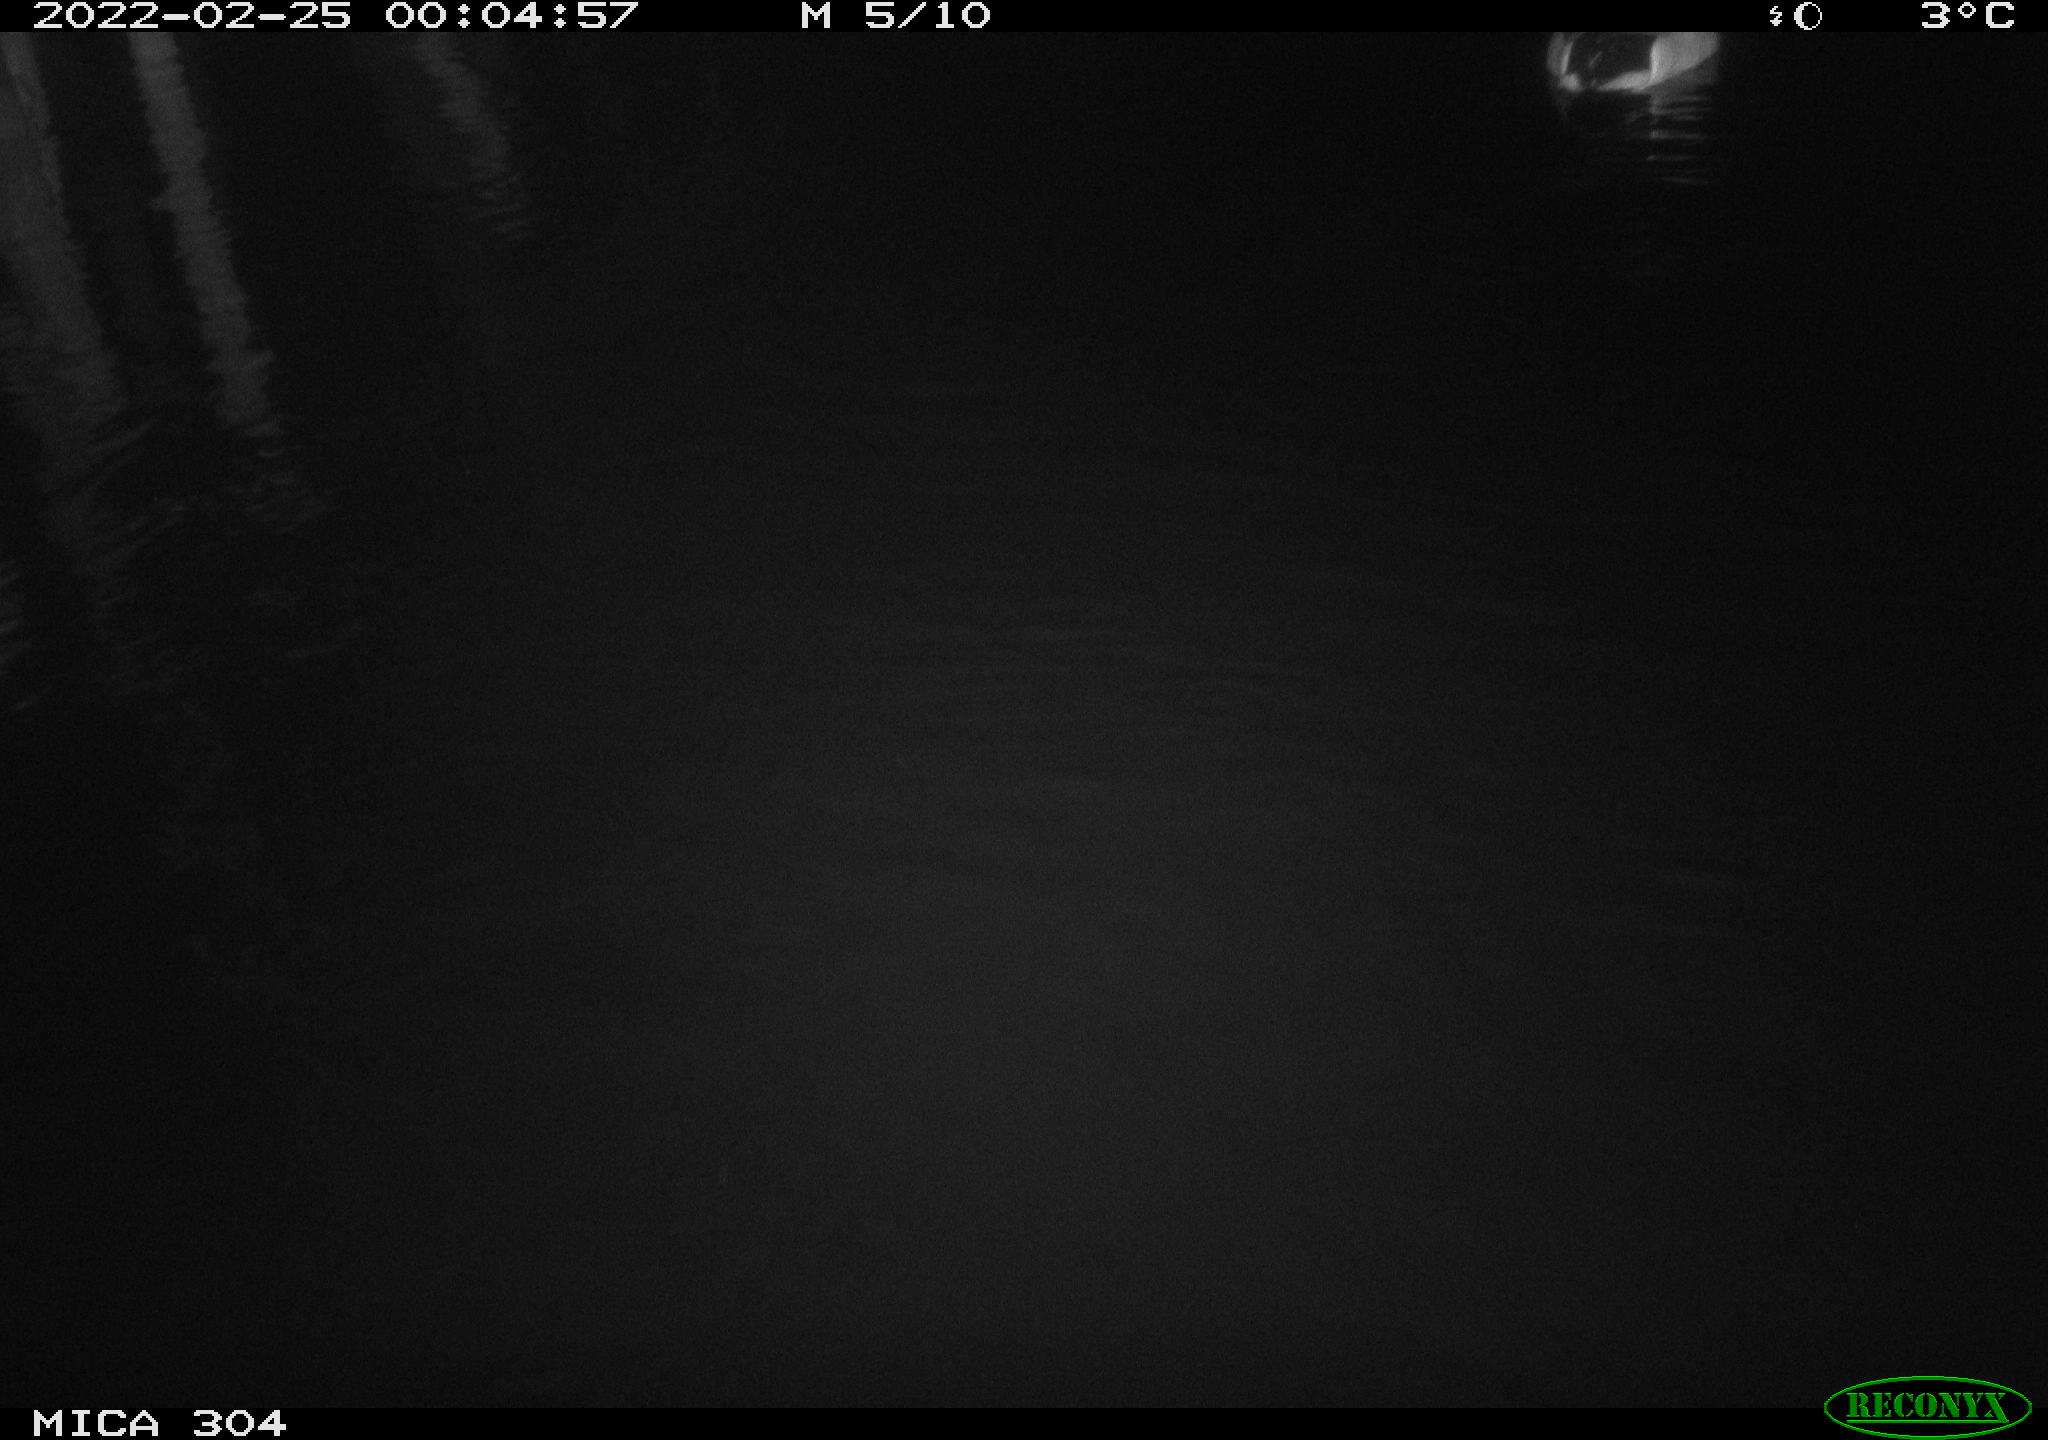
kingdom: Animalia
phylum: Chordata
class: Aves
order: Anseriformes
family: Anatidae
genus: Anas
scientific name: Anas platyrhynchos
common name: Mallard
